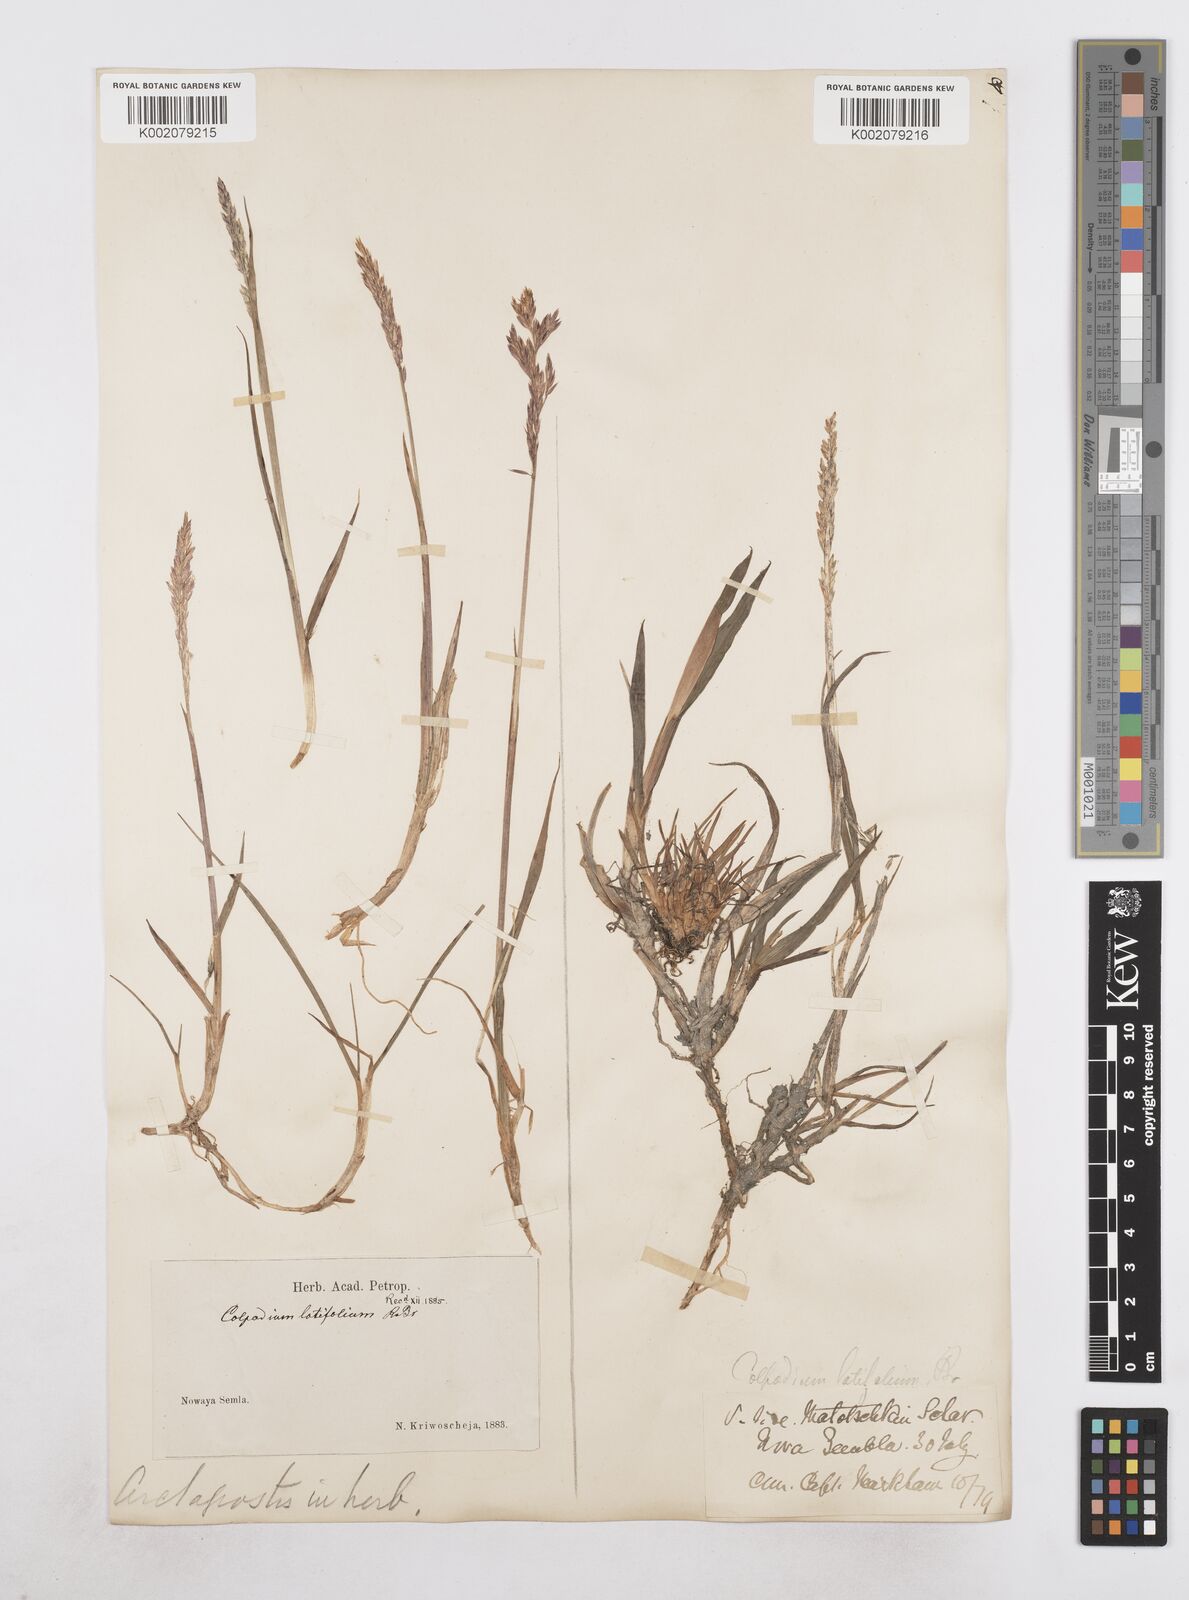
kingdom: Plantae
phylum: Tracheophyta
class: Liliopsida
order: Poales
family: Poaceae
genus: Arctagrostis
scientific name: Arctagrostis latifolia
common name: Arctic grass
